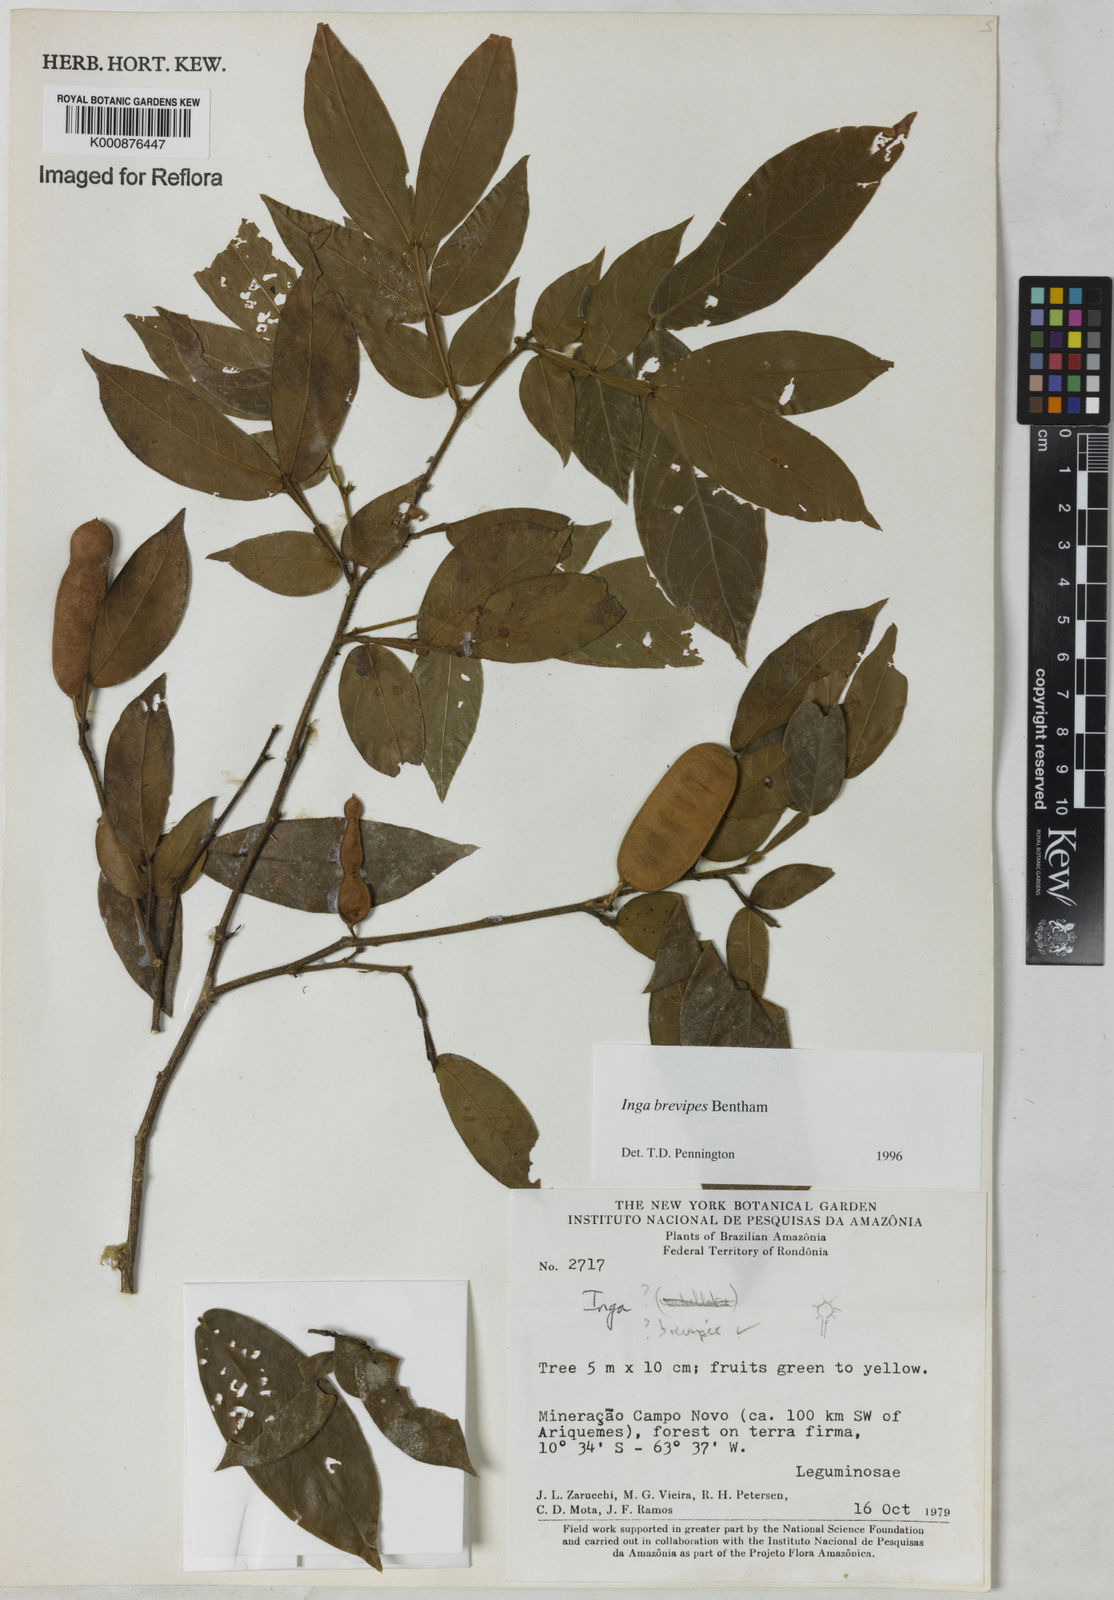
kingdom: Plantae
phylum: Tracheophyta
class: Magnoliopsida
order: Fabales
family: Fabaceae
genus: Inga
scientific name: Inga brevipes
